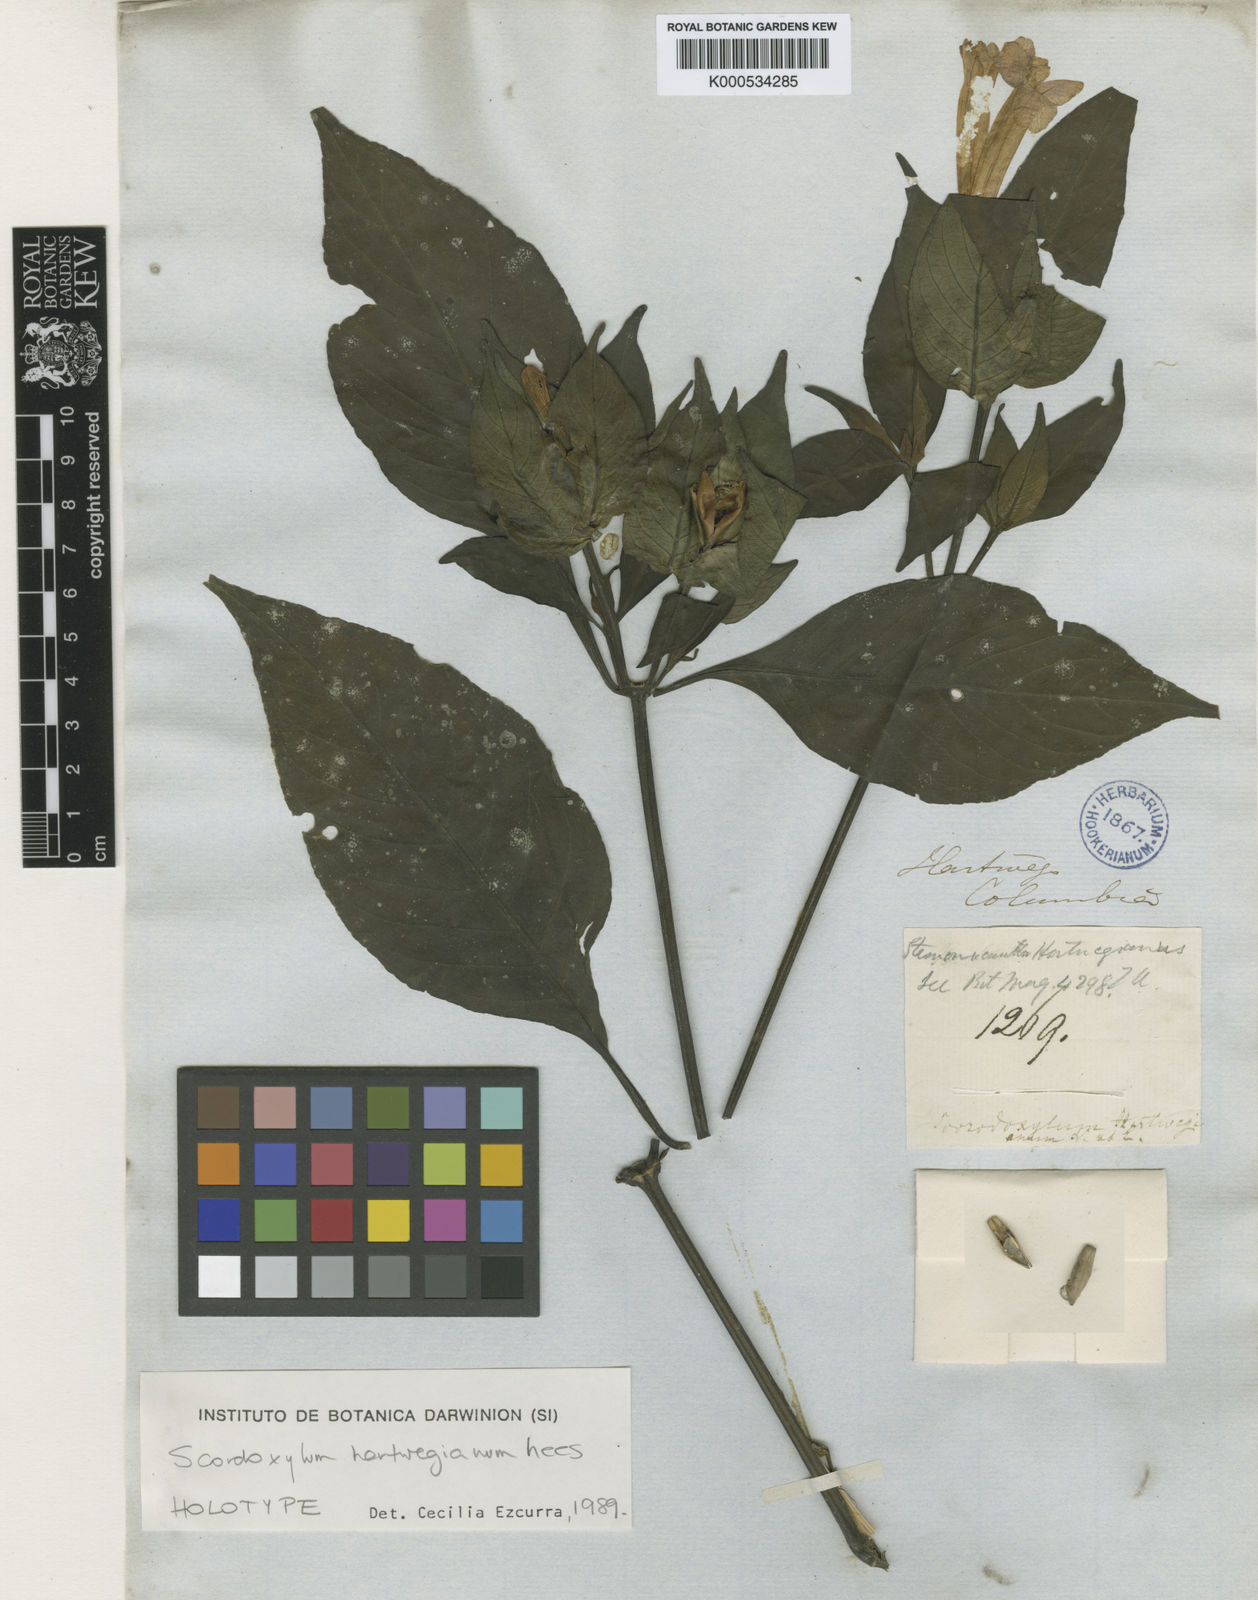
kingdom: Plantae
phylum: Tracheophyta
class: Magnoliopsida
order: Lamiales
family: Acanthaceae
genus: Ruellia
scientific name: Ruellia
